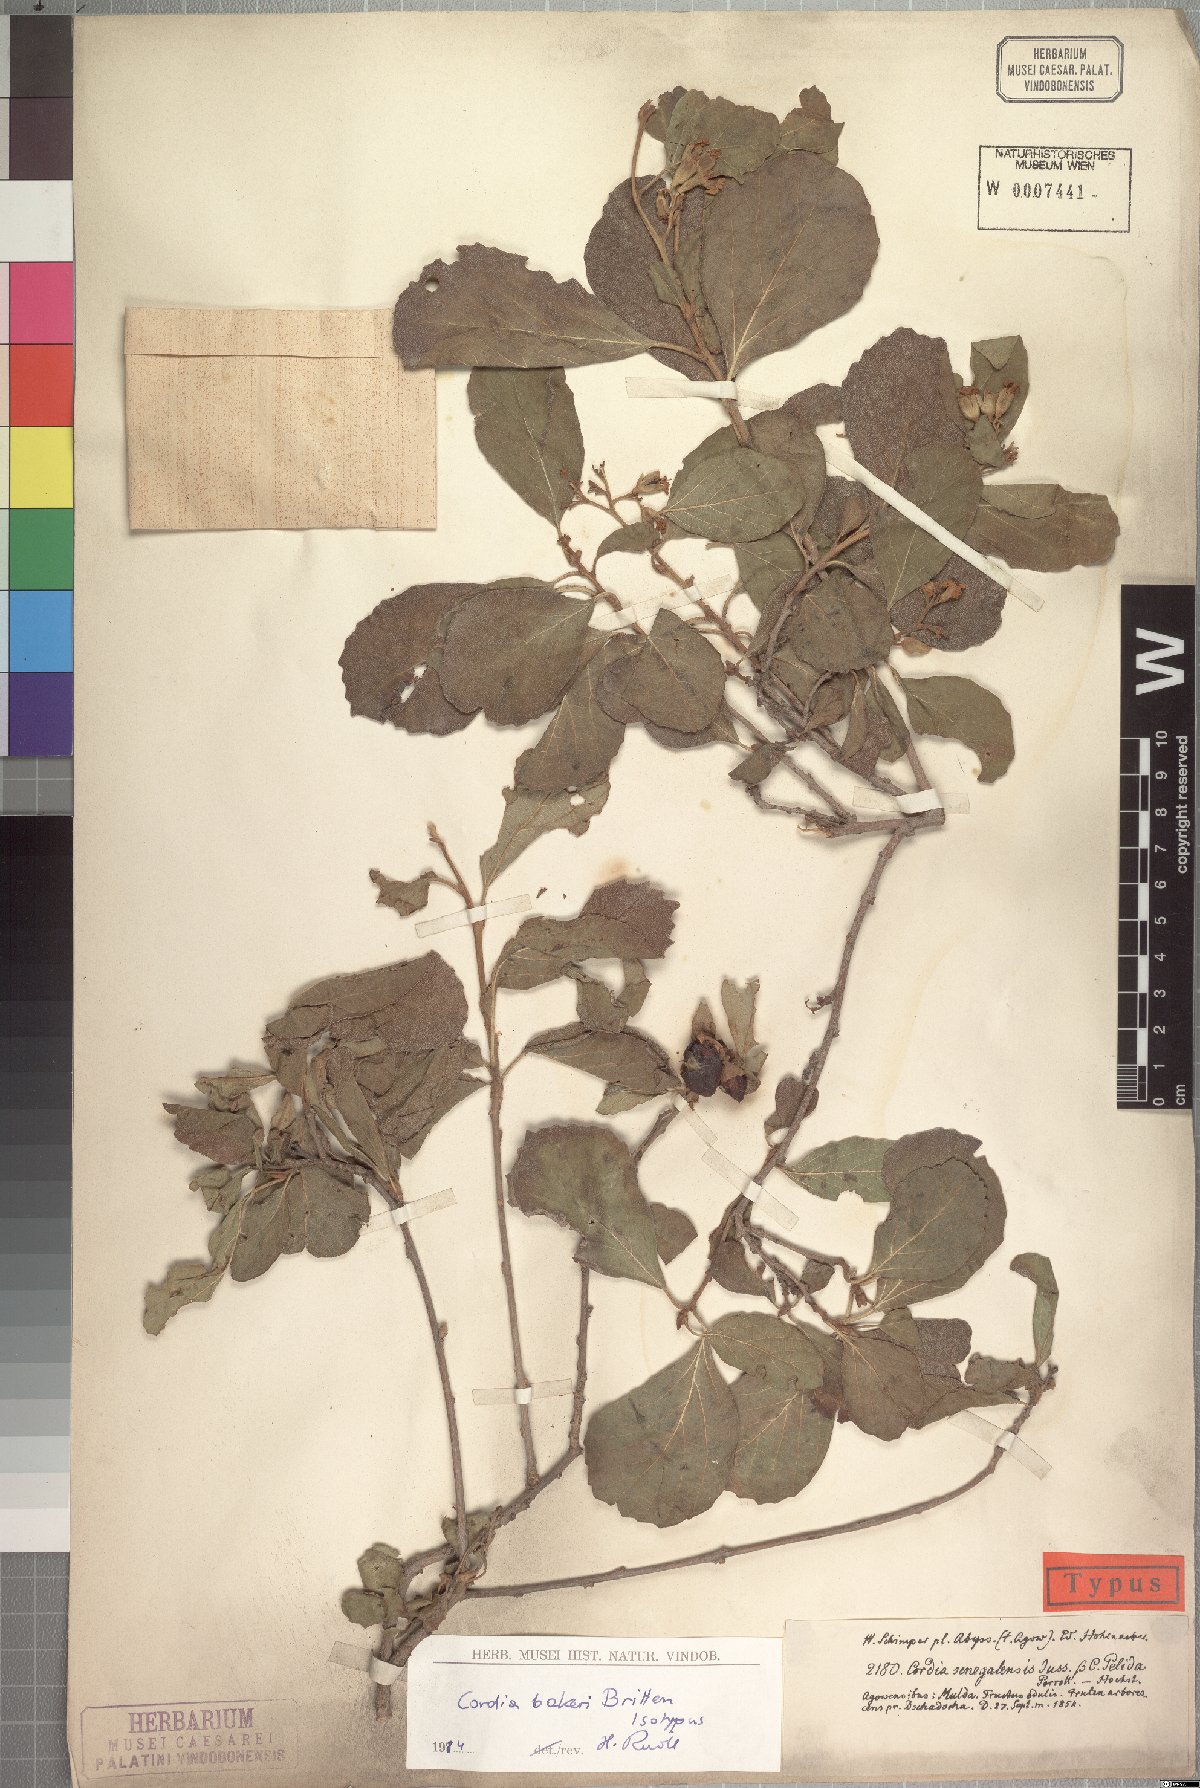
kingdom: Plantae
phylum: Tracheophyta
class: Magnoliopsida
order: Boraginales
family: Cordiaceae
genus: Cordia
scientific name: Cordia monoica
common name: Snot berry
